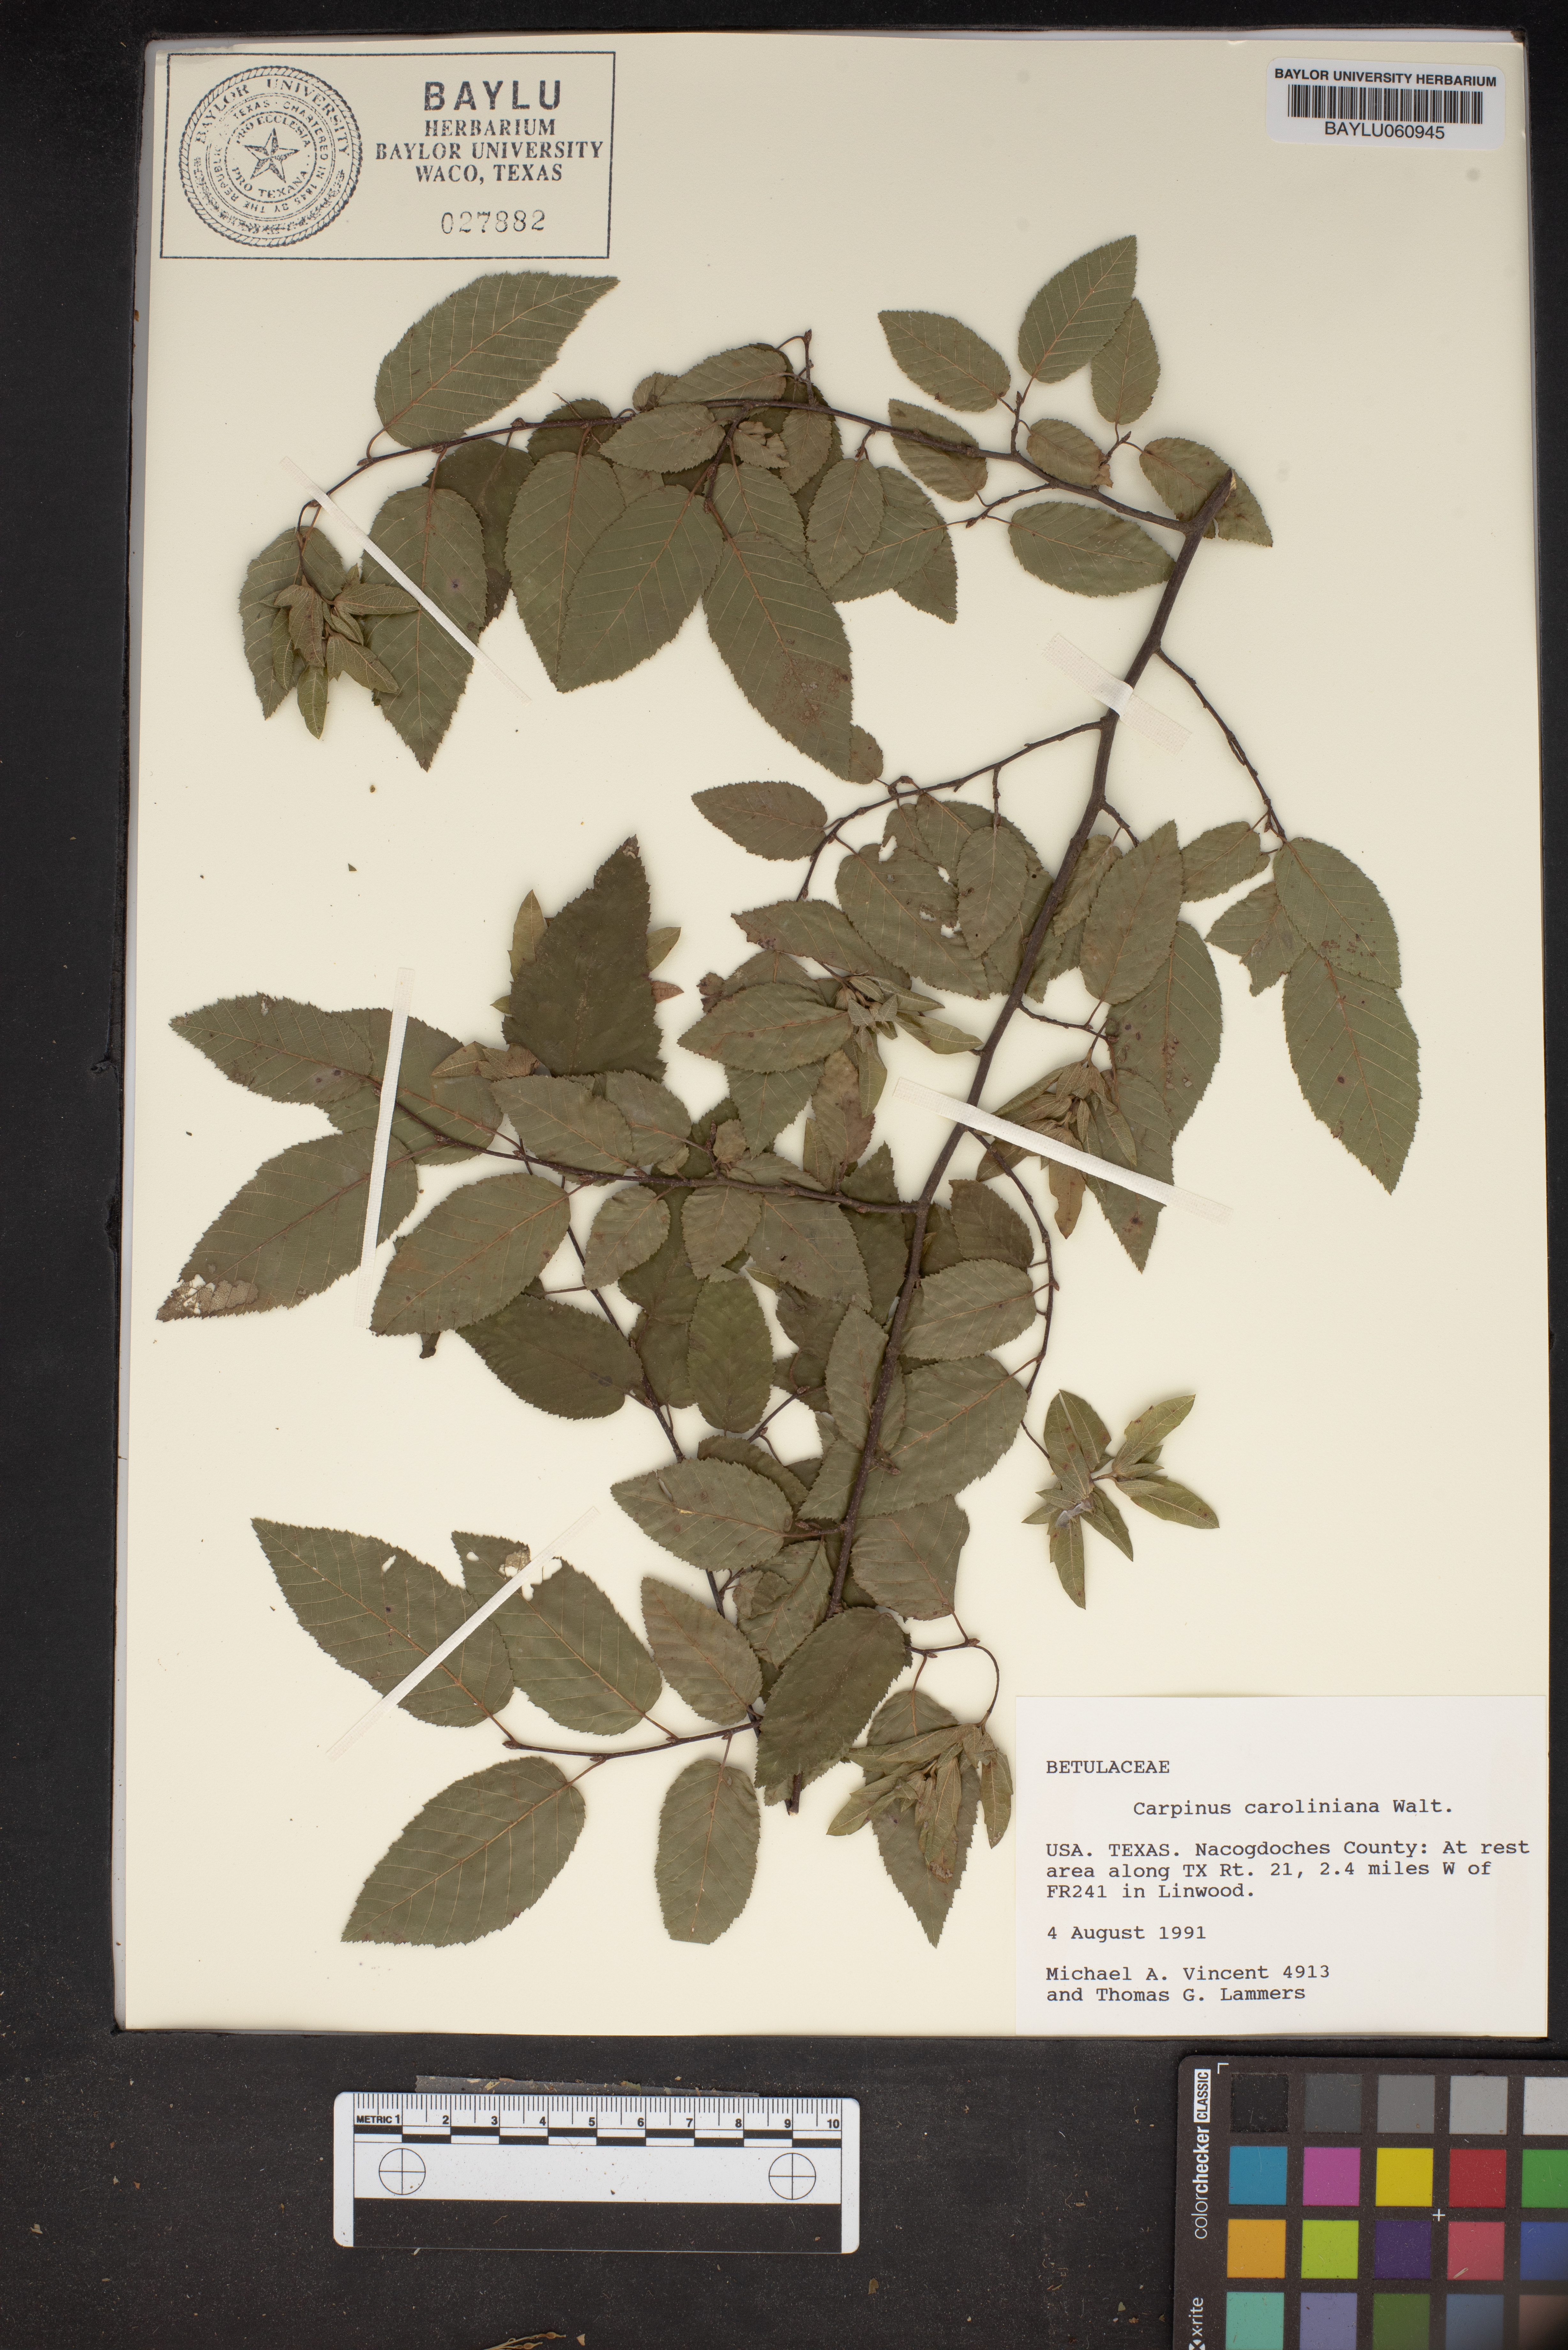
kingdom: Plantae
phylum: Tracheophyta
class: Magnoliopsida
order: Fagales
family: Betulaceae
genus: Carpinus
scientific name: Carpinus caroliniana
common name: American hornbeam
